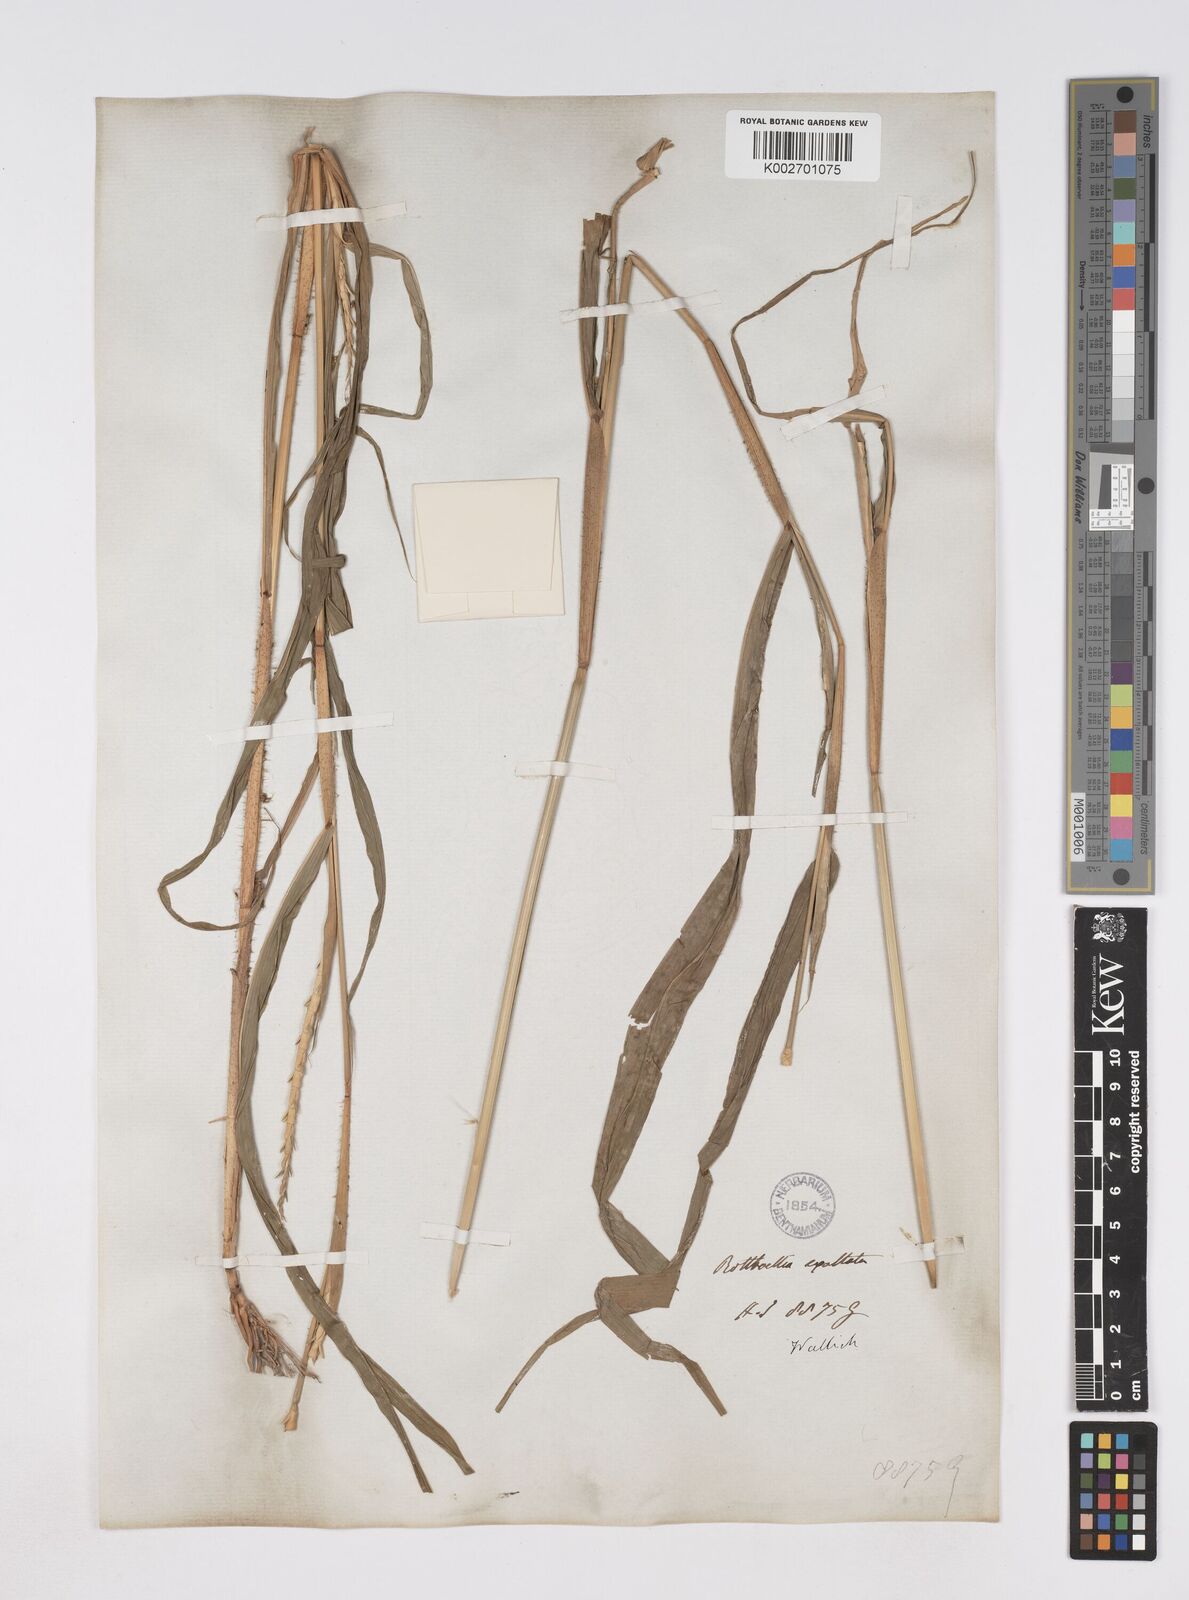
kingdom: Plantae
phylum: Tracheophyta
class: Liliopsida
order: Poales
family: Poaceae
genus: Ophiuros
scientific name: Ophiuros exaltatus
